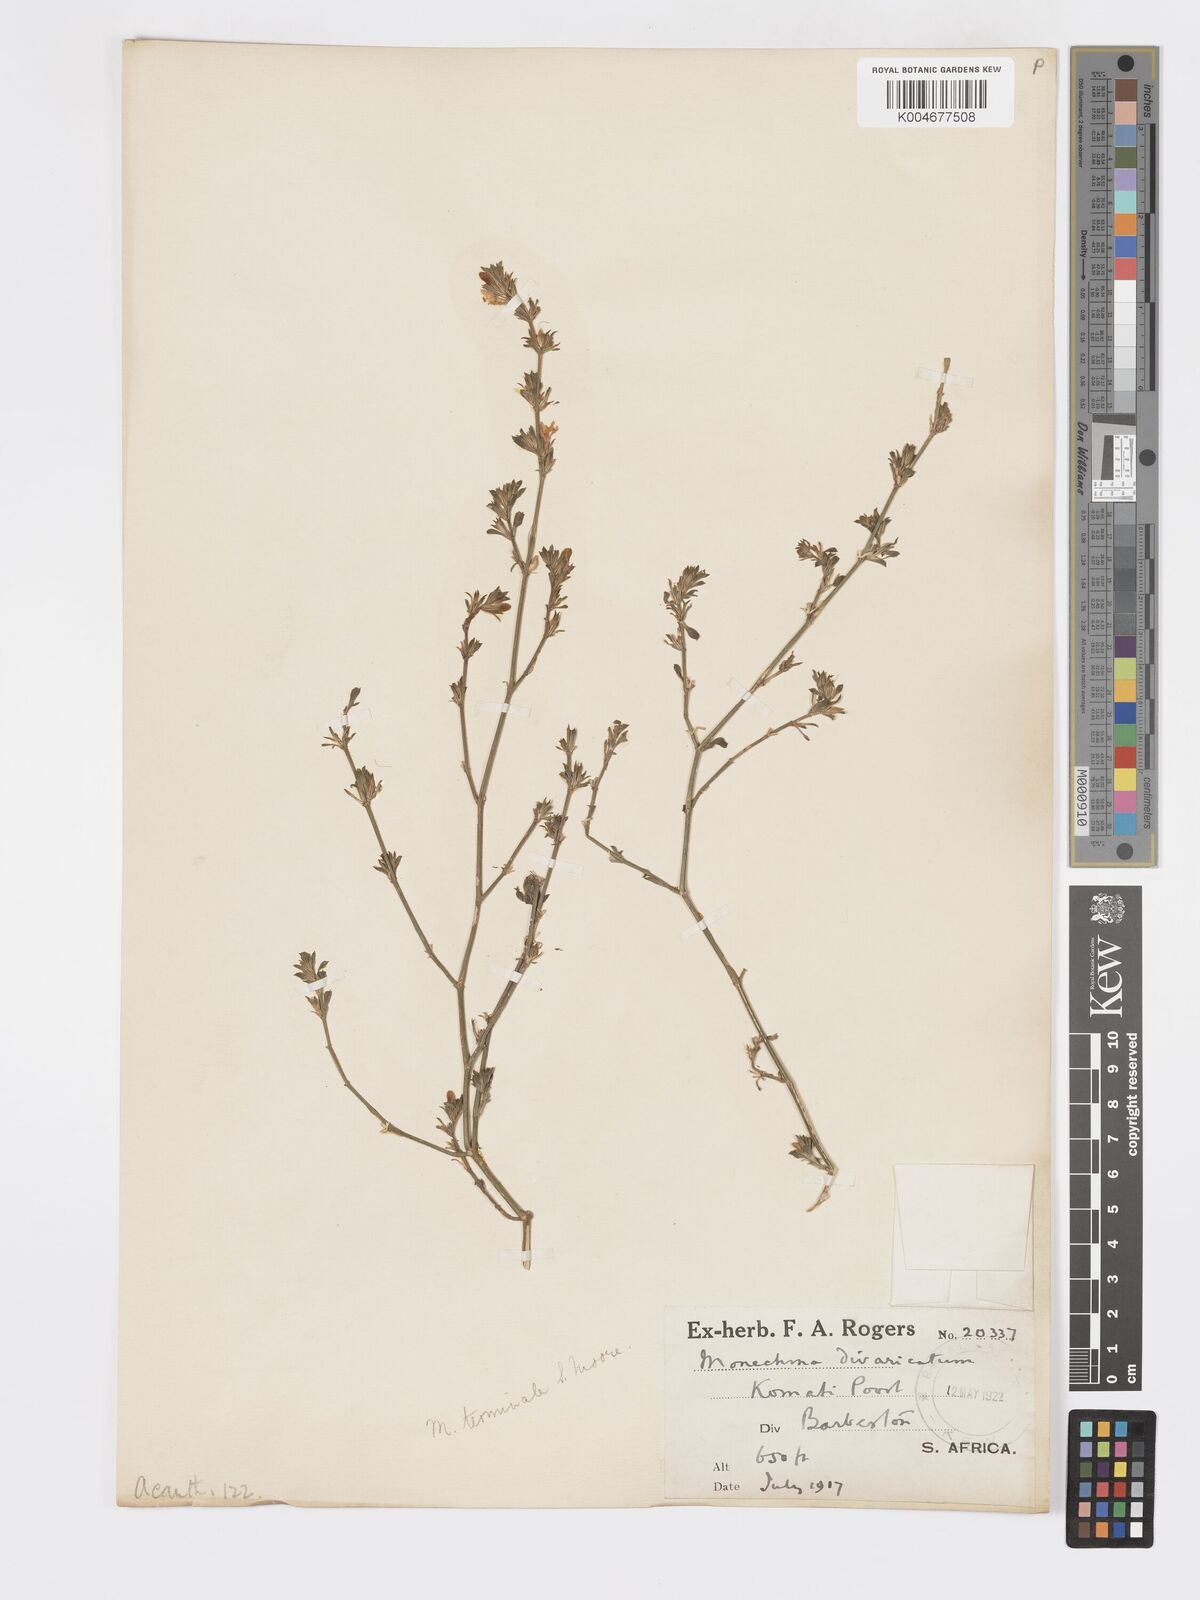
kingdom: Plantae
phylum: Tracheophyta
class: Magnoliopsida
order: Lamiales
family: Acanthaceae
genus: Pogonospermum
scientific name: Pogonospermum
